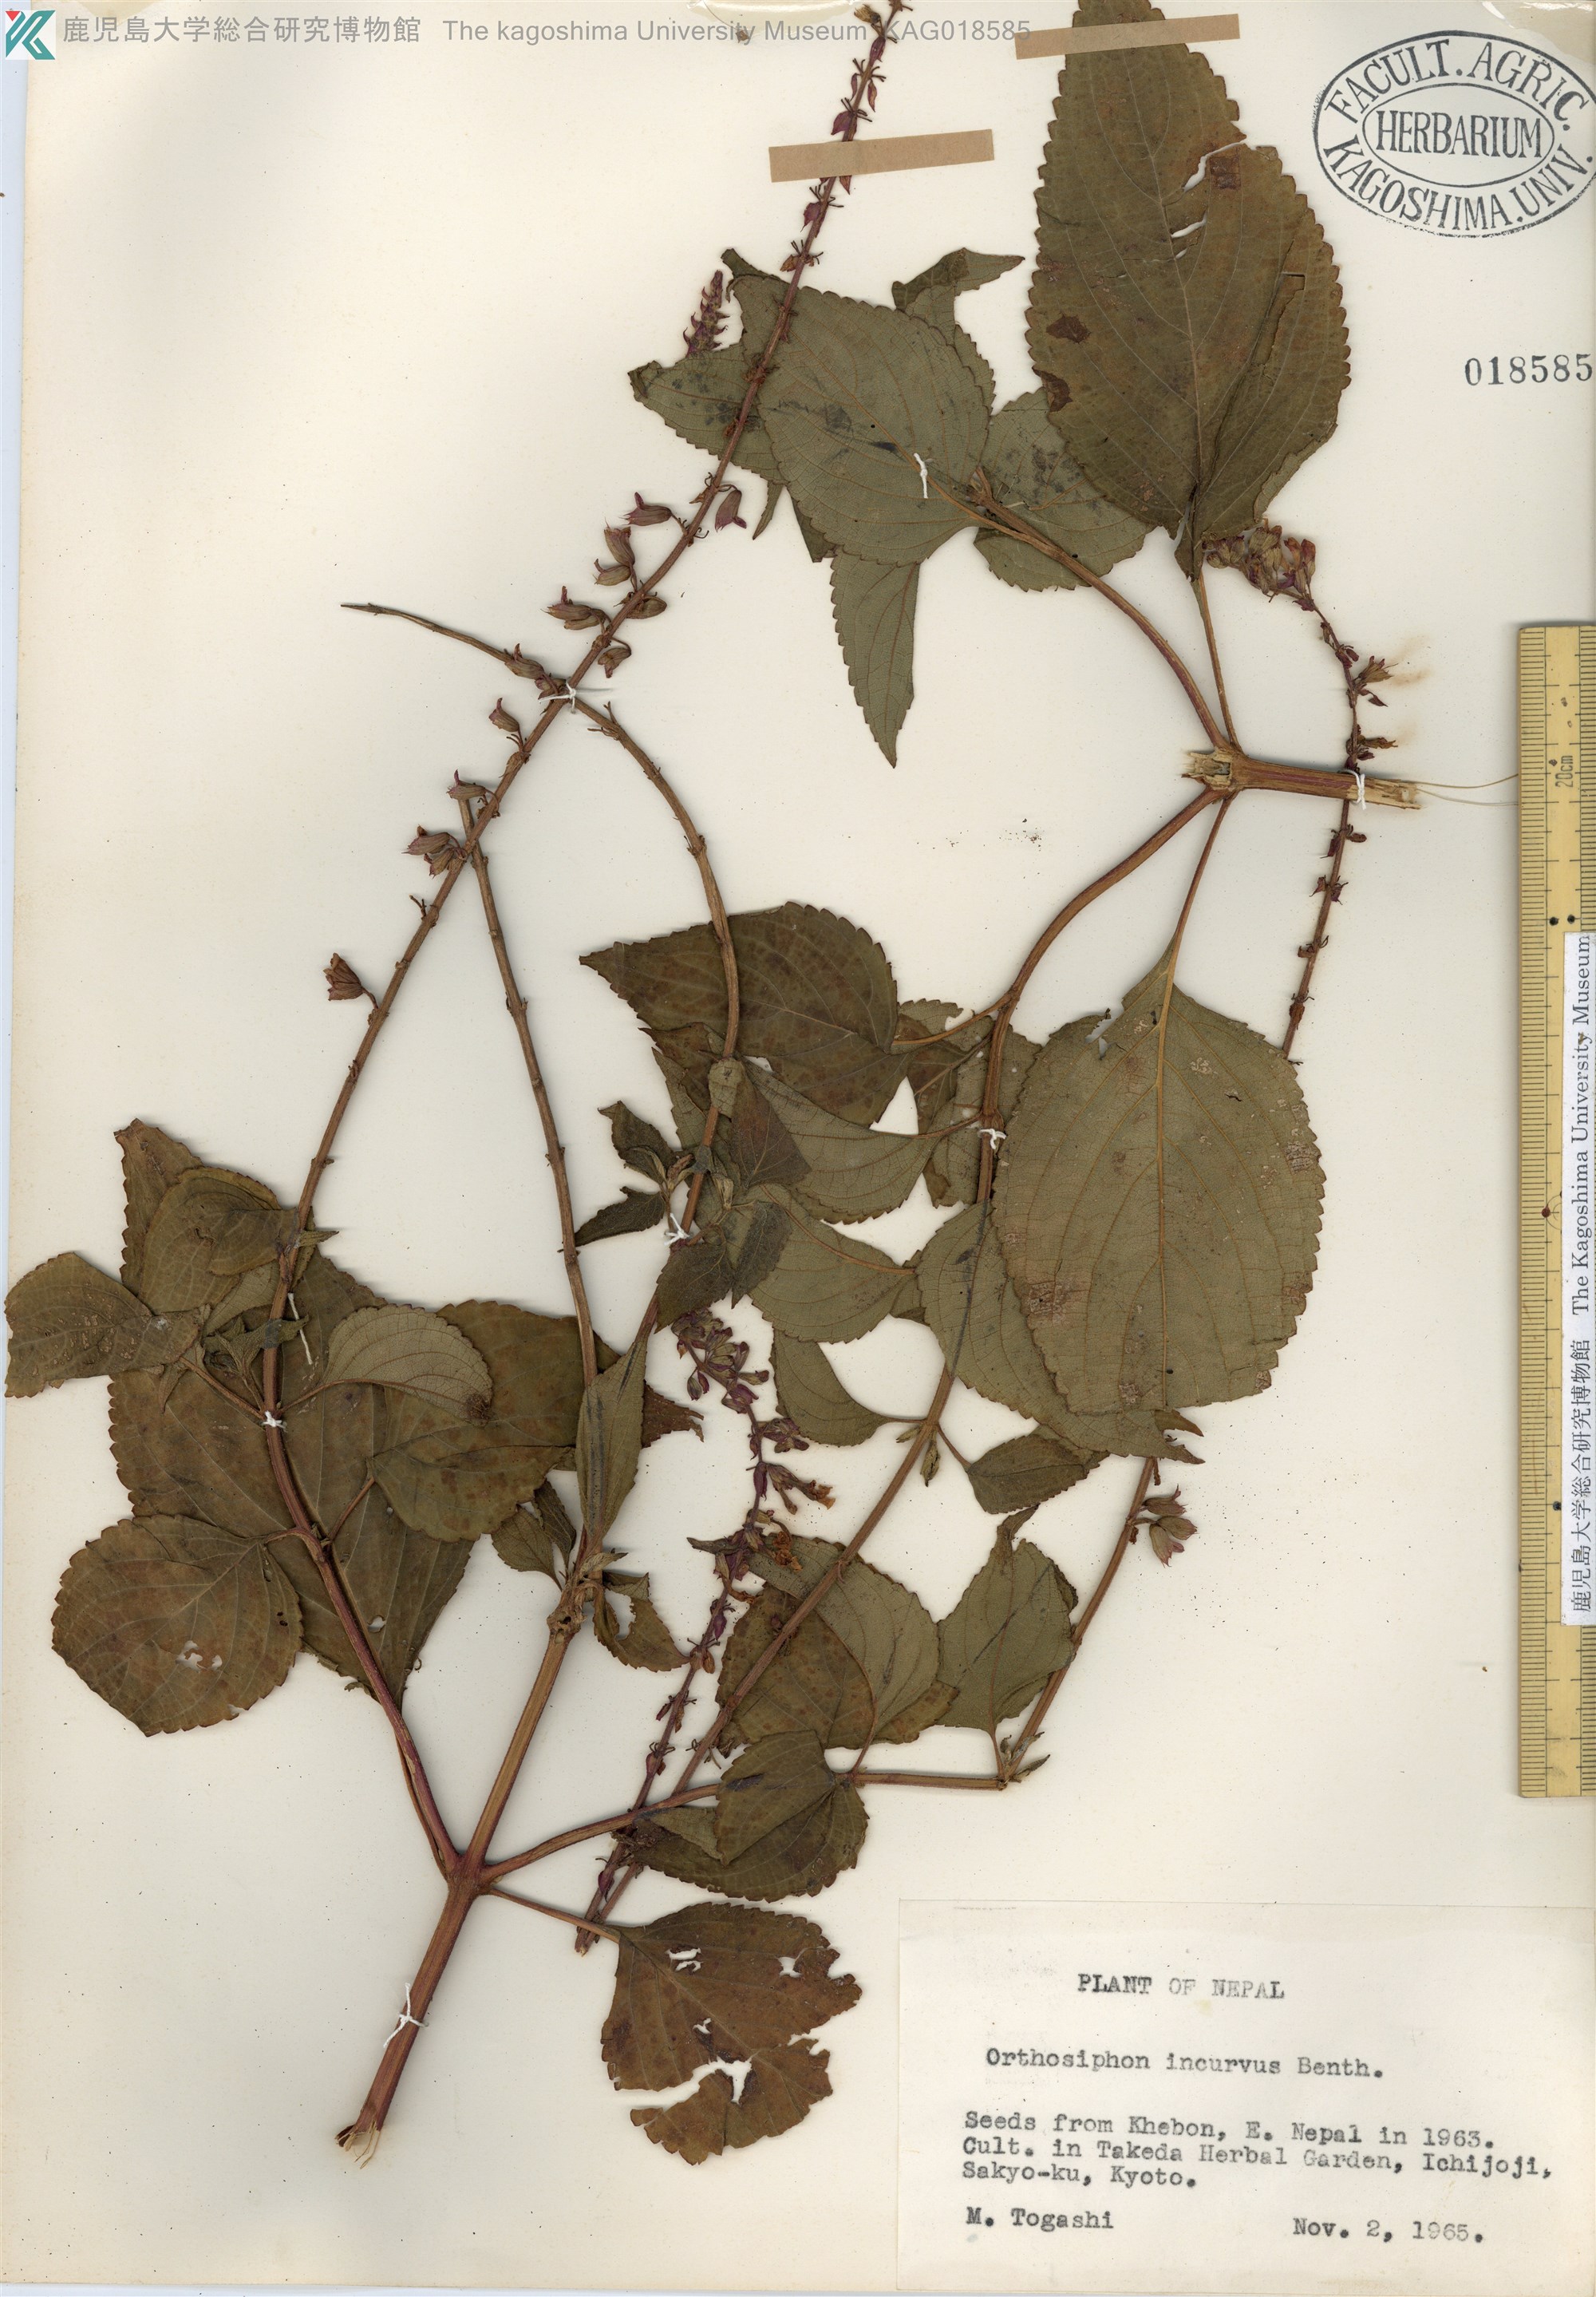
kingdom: Plantae
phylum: Tracheophyta
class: Magnoliopsida
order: Lamiales
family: Lamiaceae
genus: Orthosiphon
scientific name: Orthosiphon incurvus
